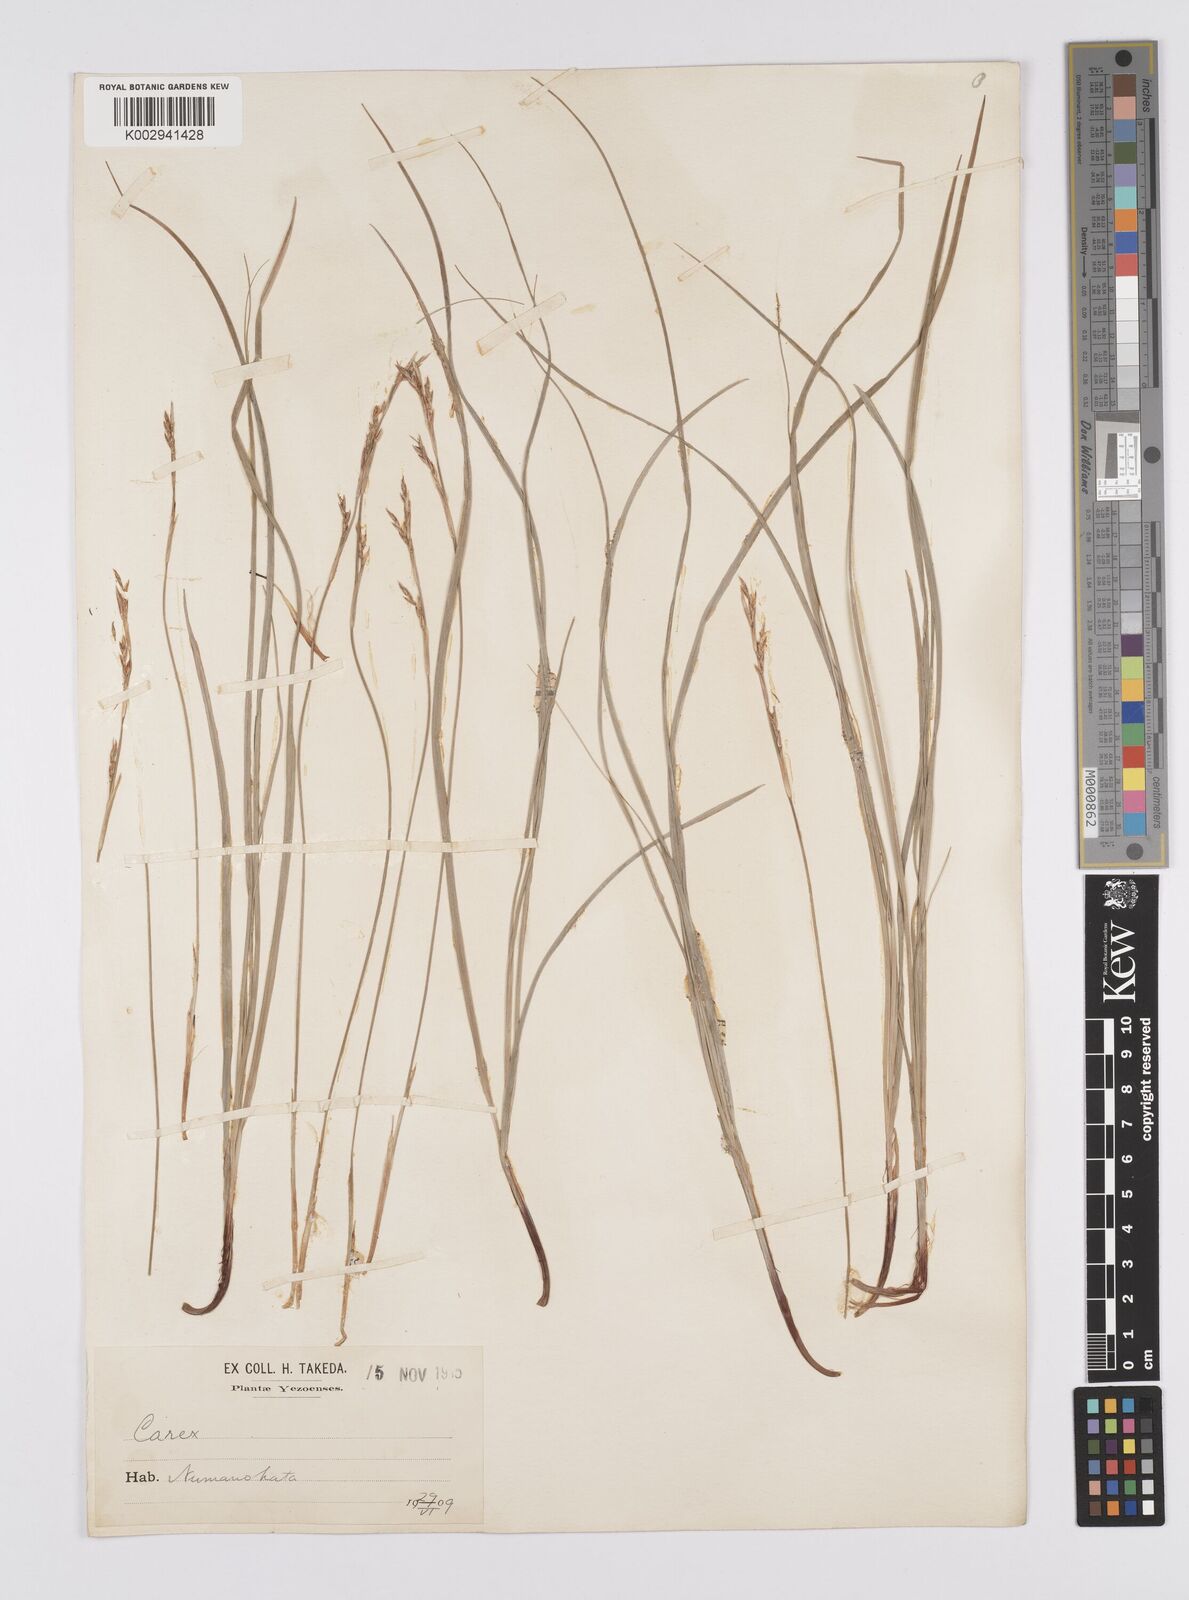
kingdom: Plantae
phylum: Tracheophyta
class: Liliopsida
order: Poales
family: Cyperaceae
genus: Carex
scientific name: Carex lanceolata
